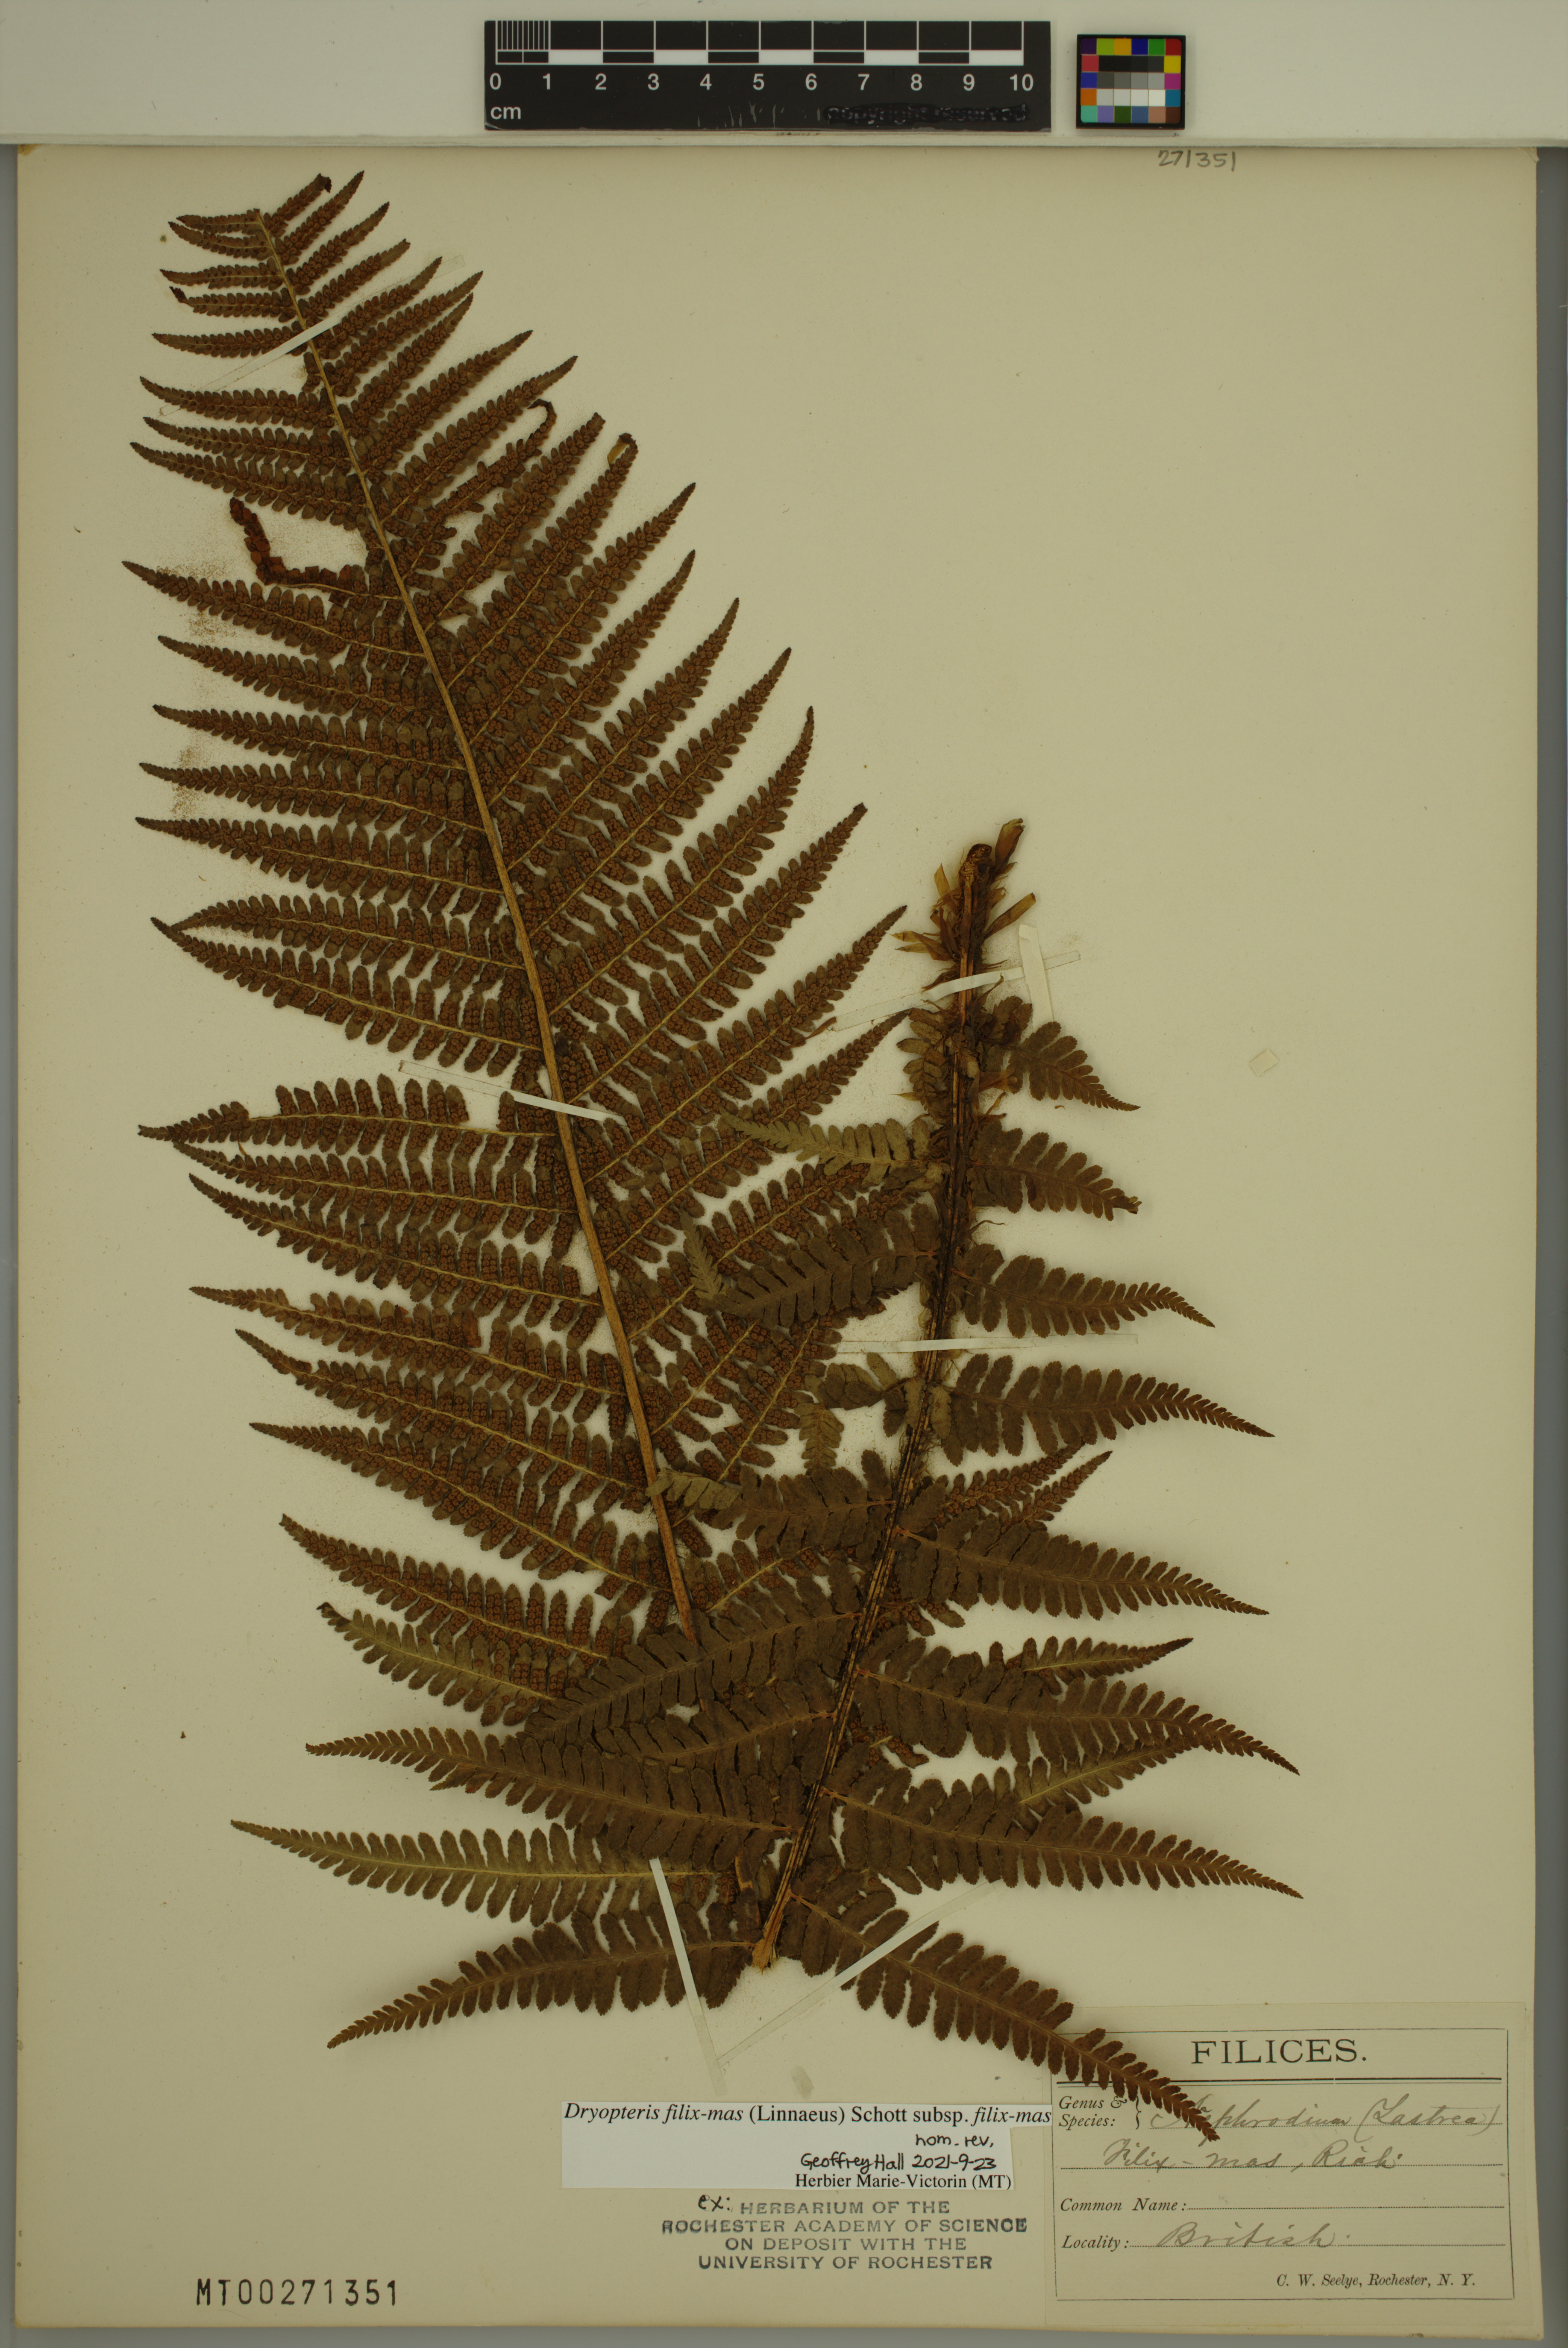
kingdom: Plantae
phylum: Tracheophyta
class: Polypodiopsida
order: Polypodiales
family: Dryopteridaceae
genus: Dryopteris
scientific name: Dryopteris filix-mas
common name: Male fern
